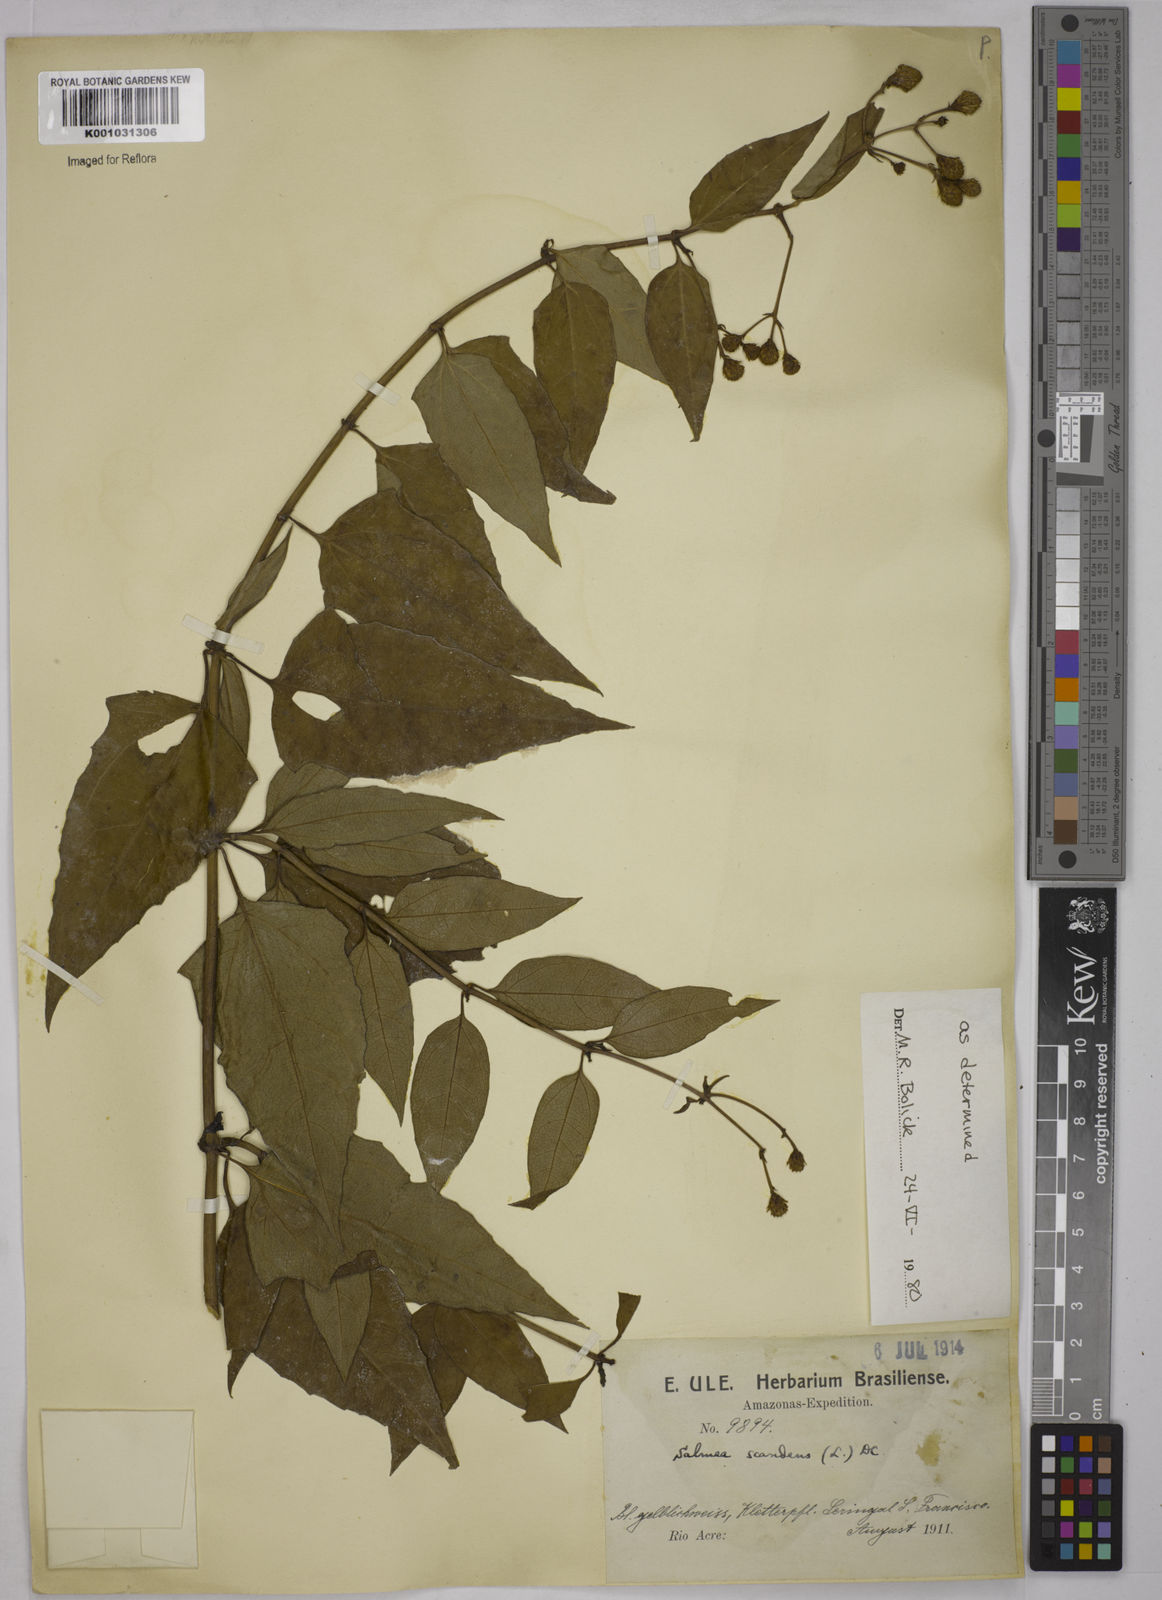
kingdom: Plantae
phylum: Tracheophyta
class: Magnoliopsida
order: Asterales
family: Asteraceae
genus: Salmea
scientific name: Salmea scandens
